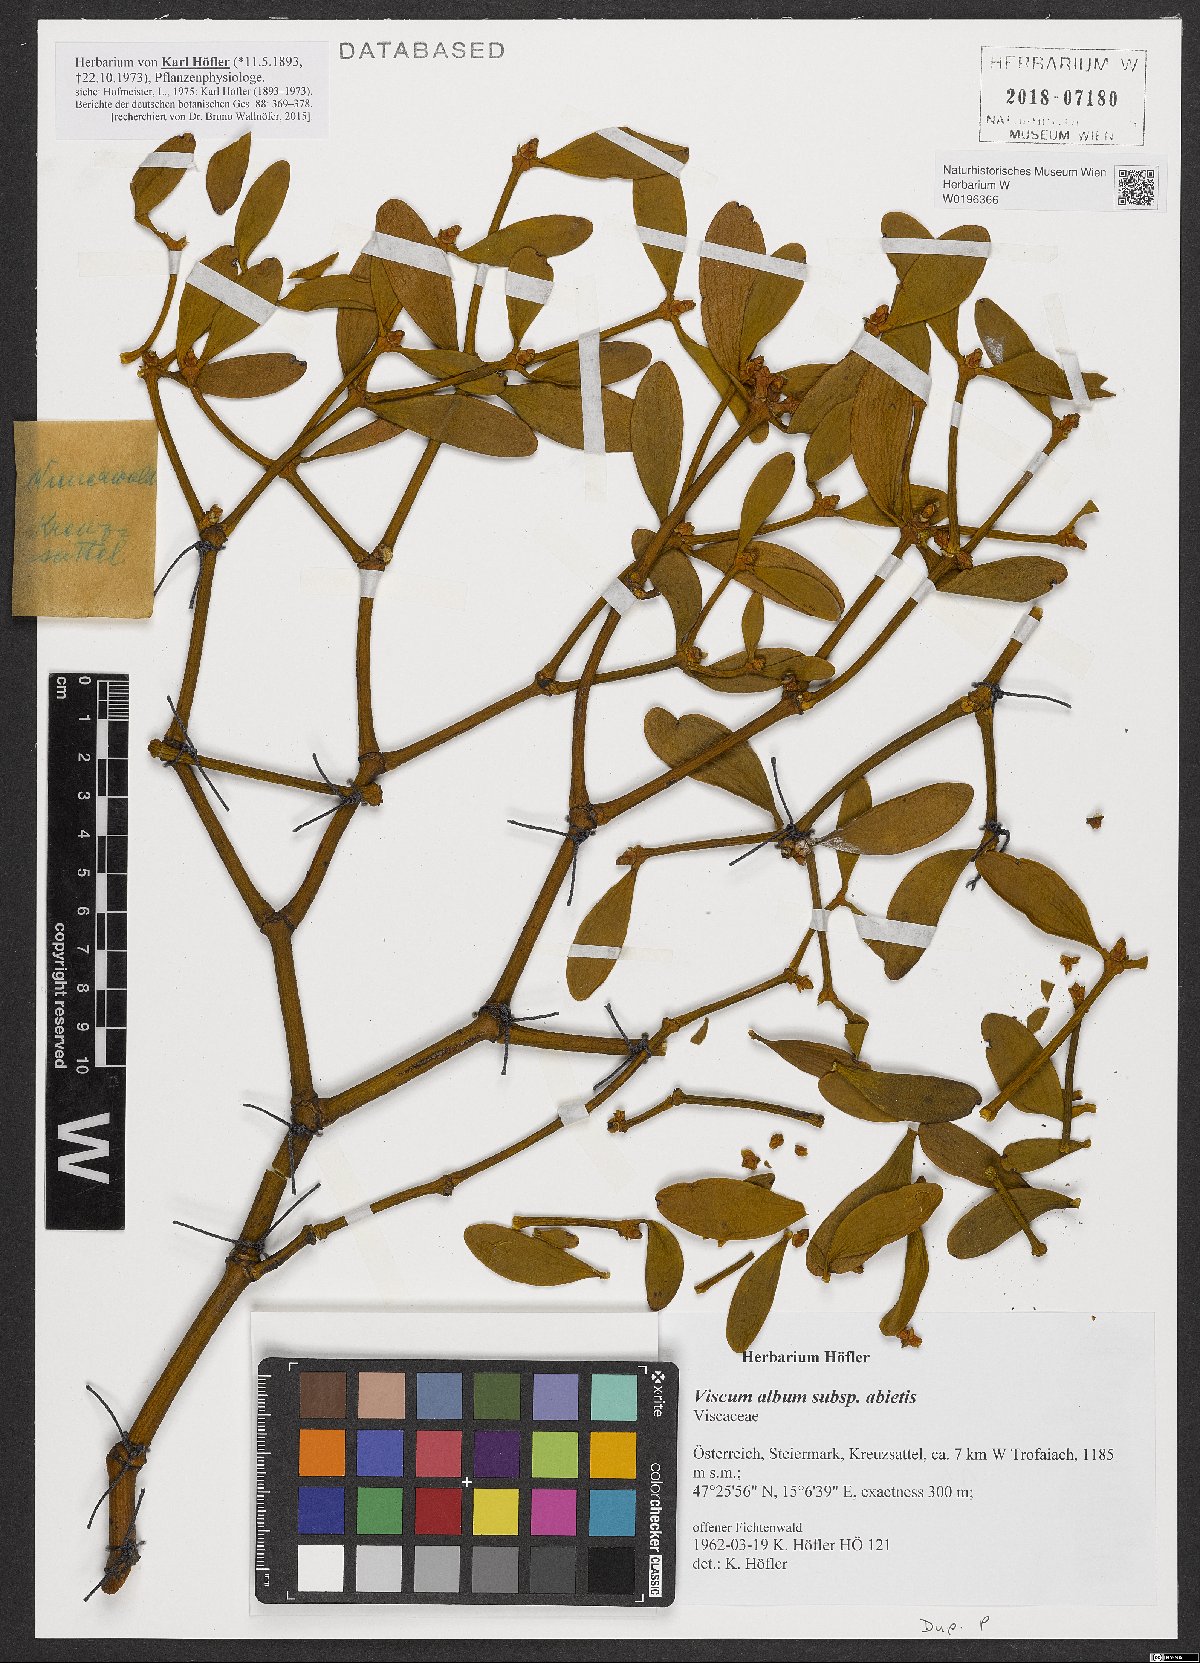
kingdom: Plantae
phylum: Tracheophyta
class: Magnoliopsida
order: Santalales
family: Viscaceae
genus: Viscum
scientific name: Viscum album
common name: Mistletoe
